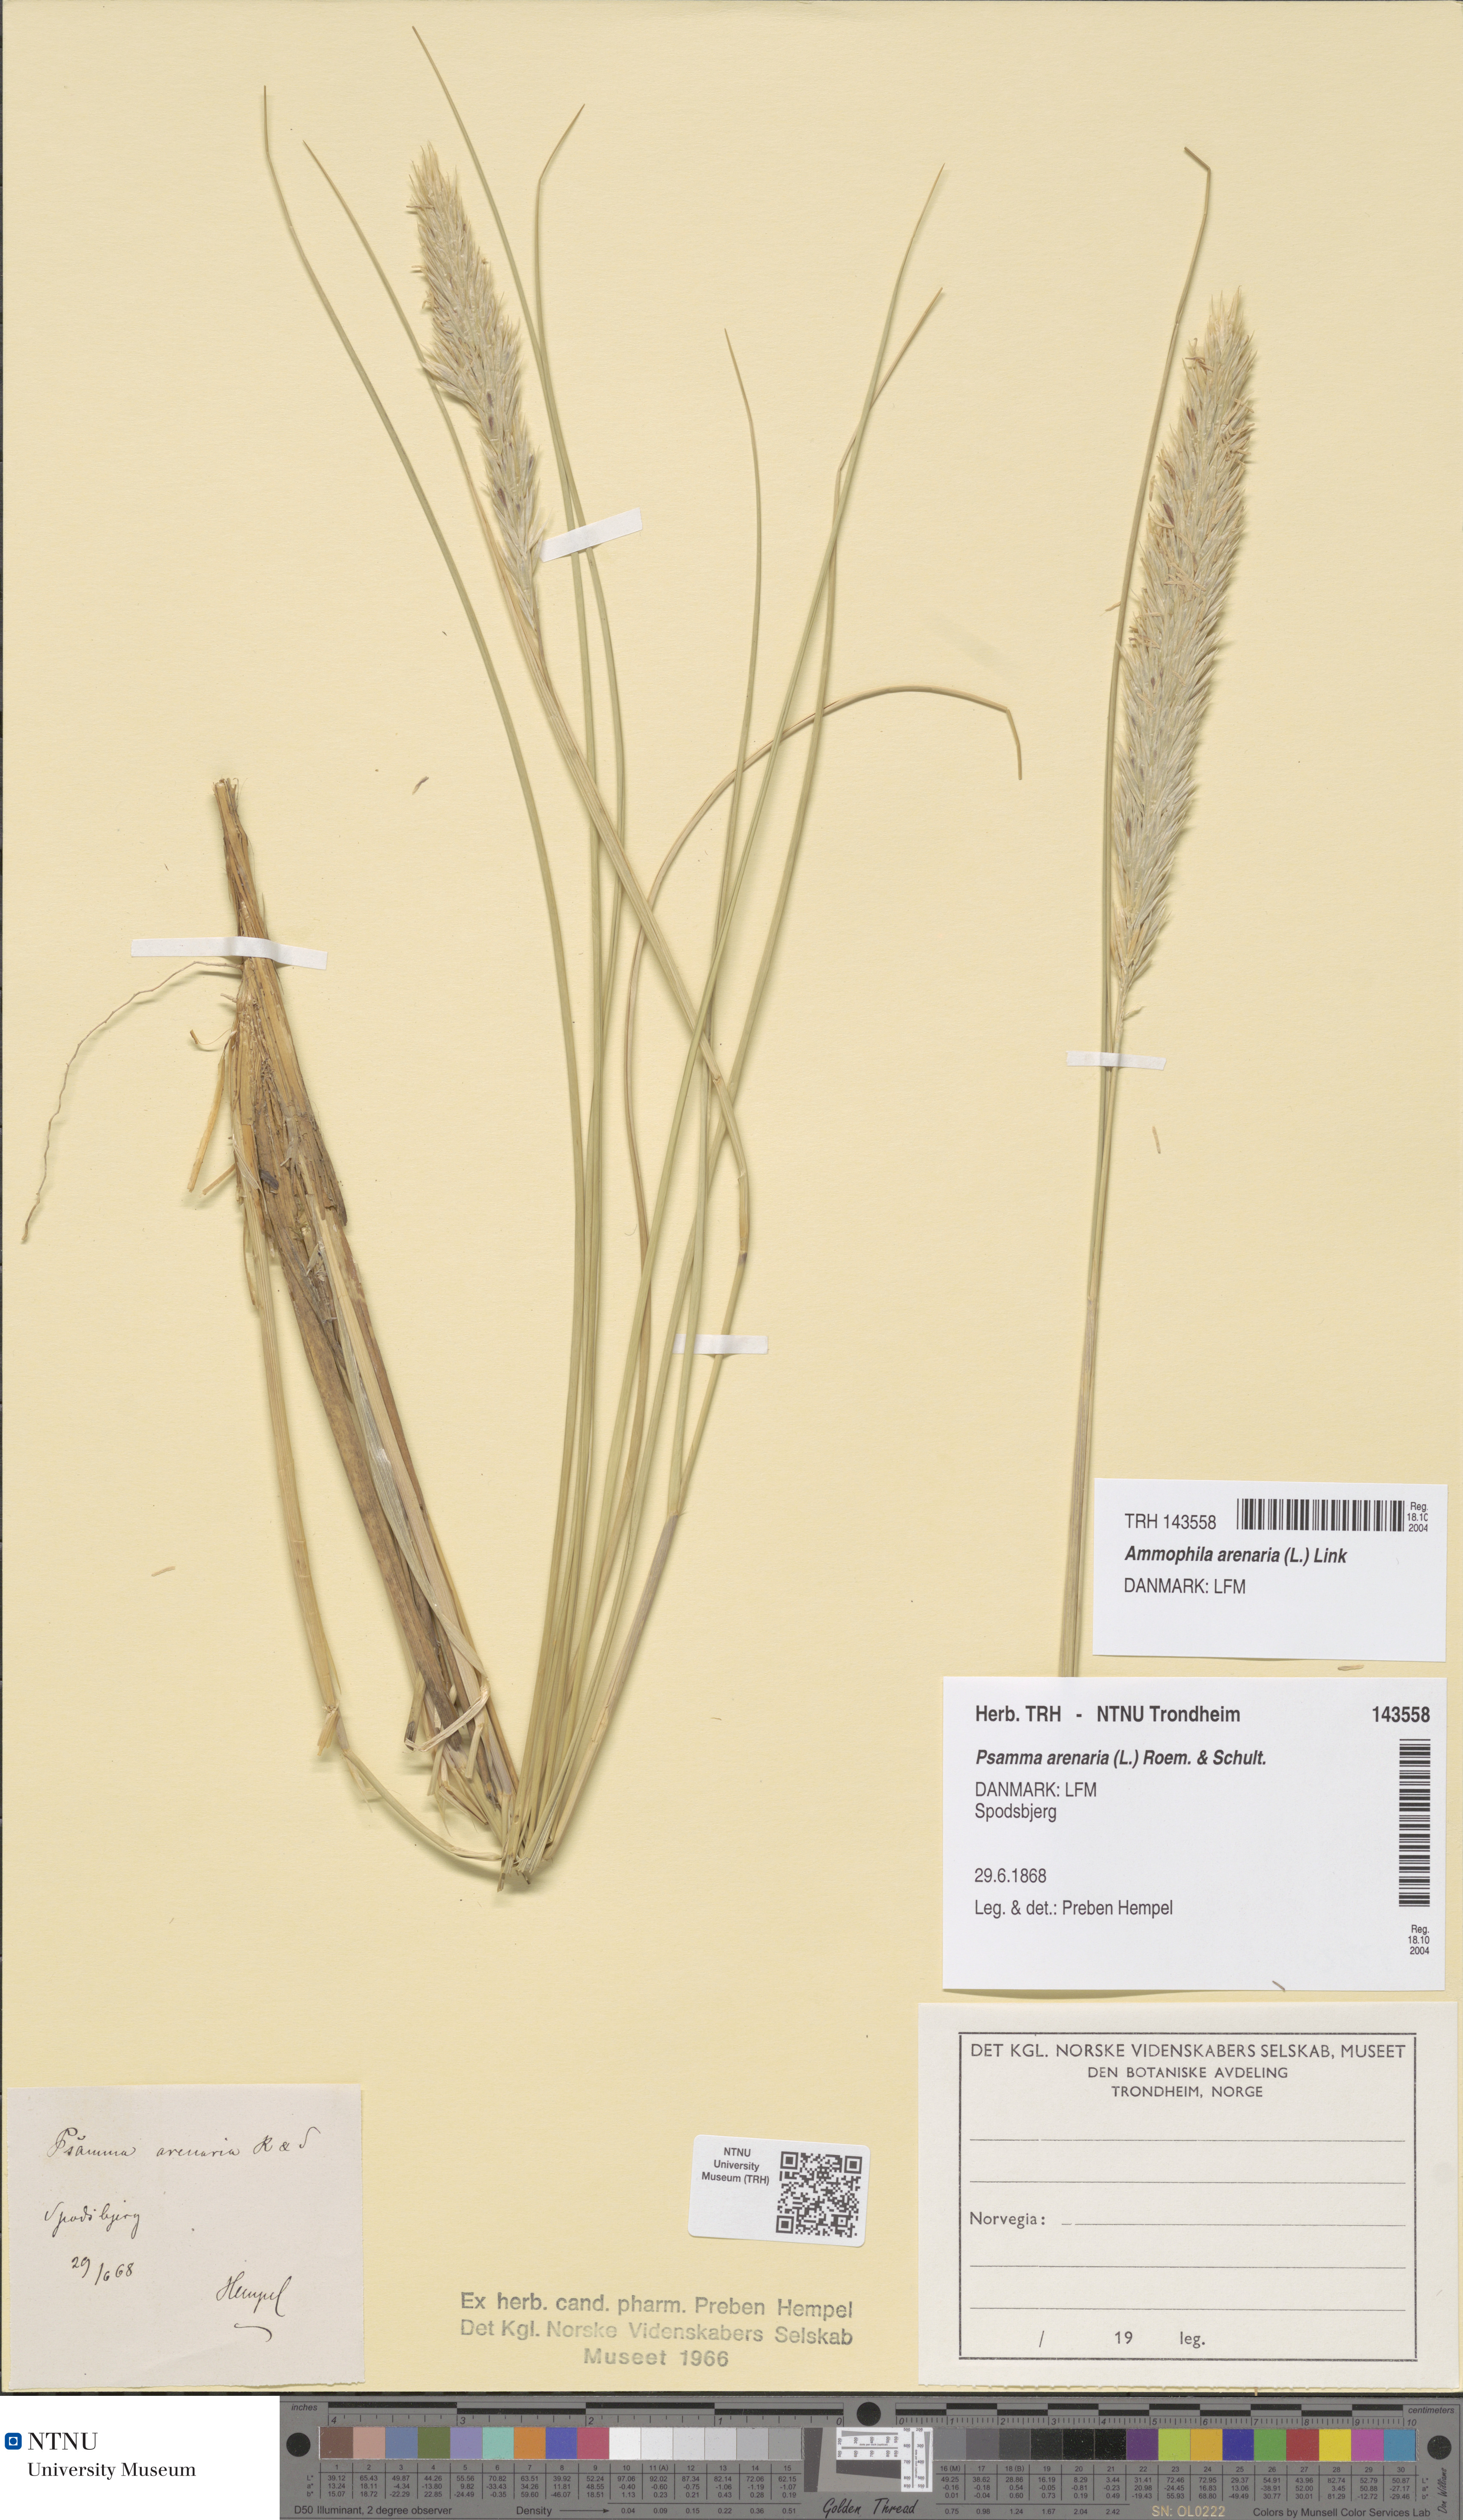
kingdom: Plantae
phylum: Tracheophyta
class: Liliopsida
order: Poales
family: Poaceae
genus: Calamagrostis
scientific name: Calamagrostis arenaria
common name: European beachgrass
